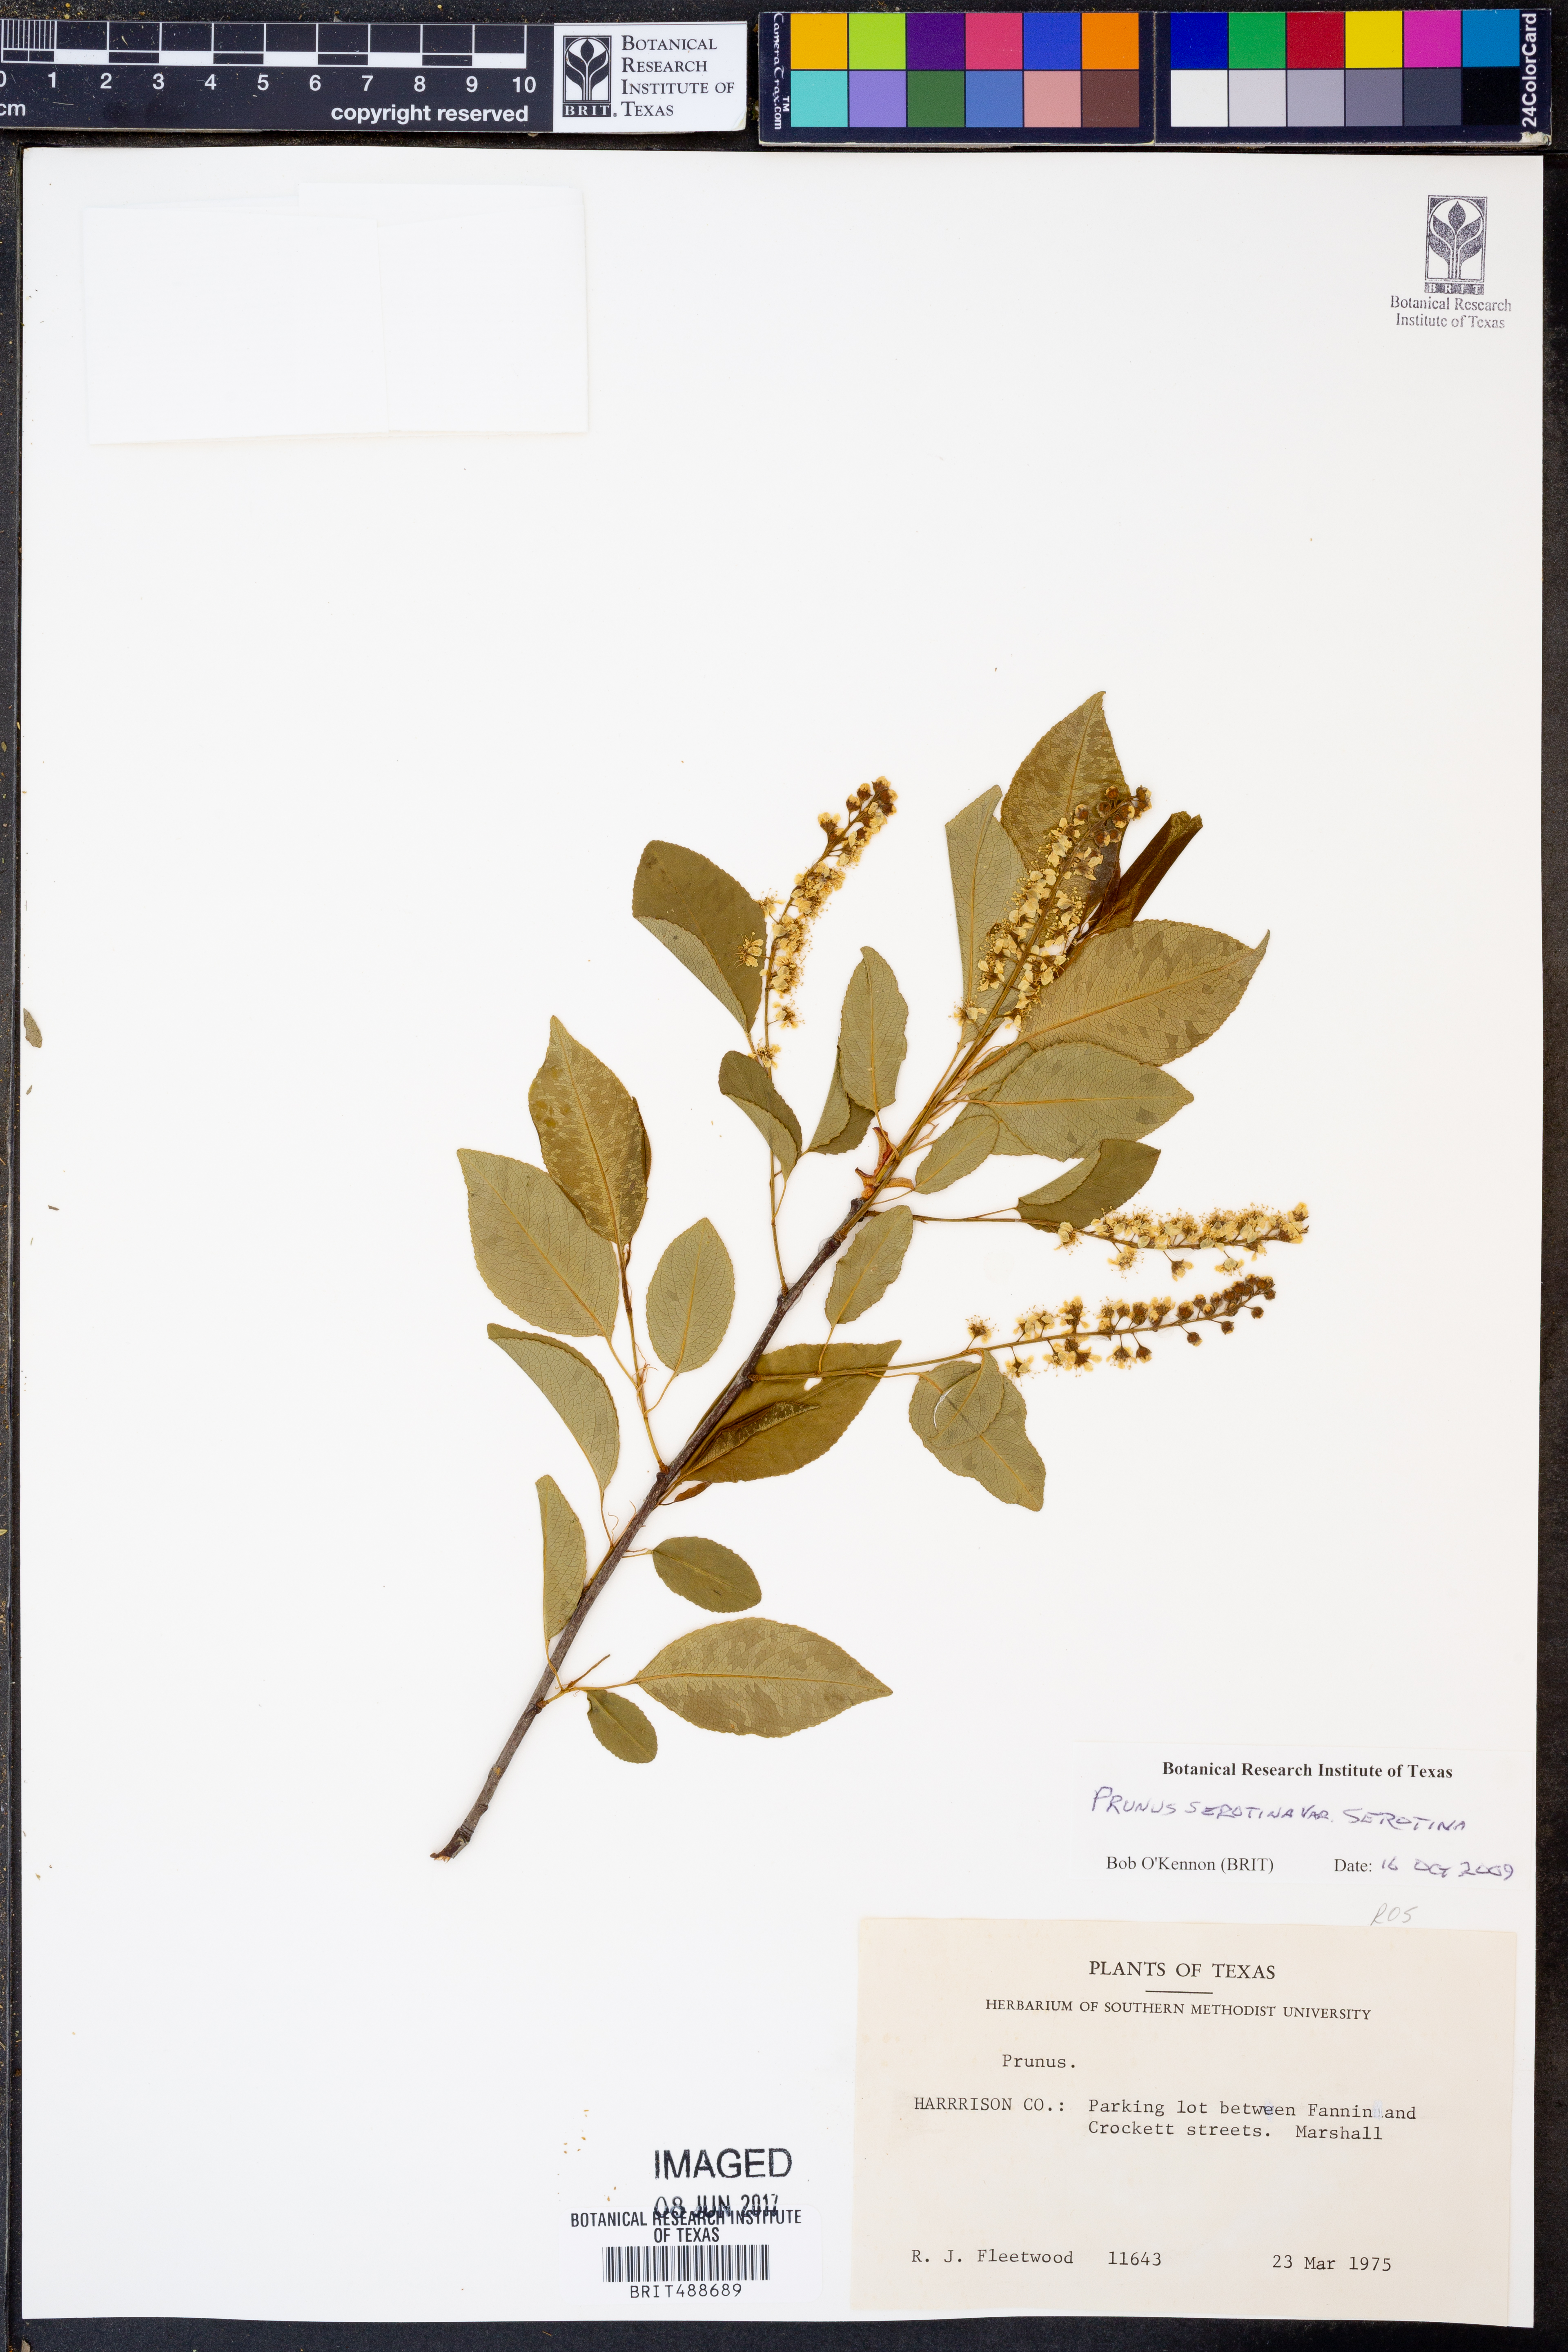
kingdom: Plantae
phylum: Tracheophyta
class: Magnoliopsida
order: Rosales
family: Rosaceae
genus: Prunus
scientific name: Prunus serotina
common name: Black cherry
